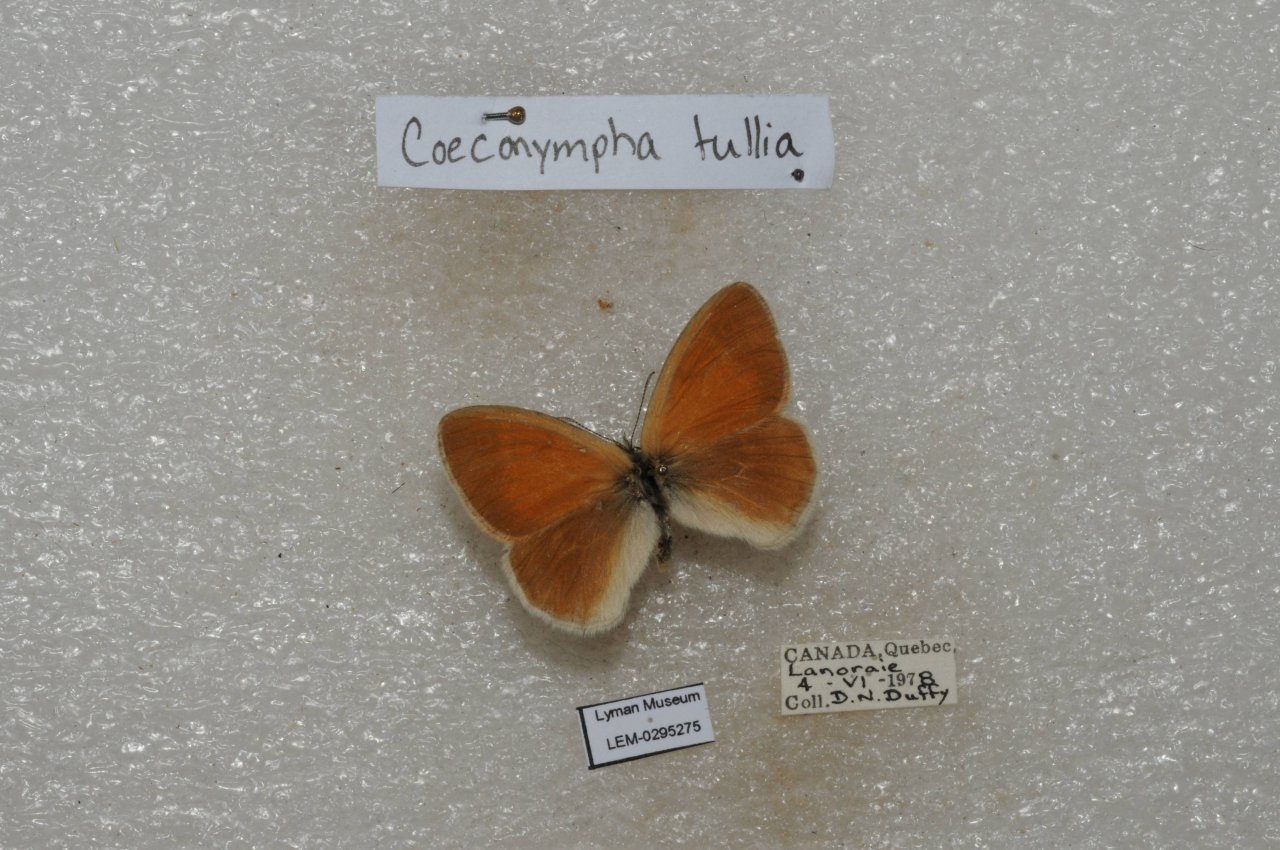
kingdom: Animalia
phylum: Arthropoda
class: Insecta
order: Lepidoptera
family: Nymphalidae
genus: Coenonympha
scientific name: Coenonympha tullia
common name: Large Heath
